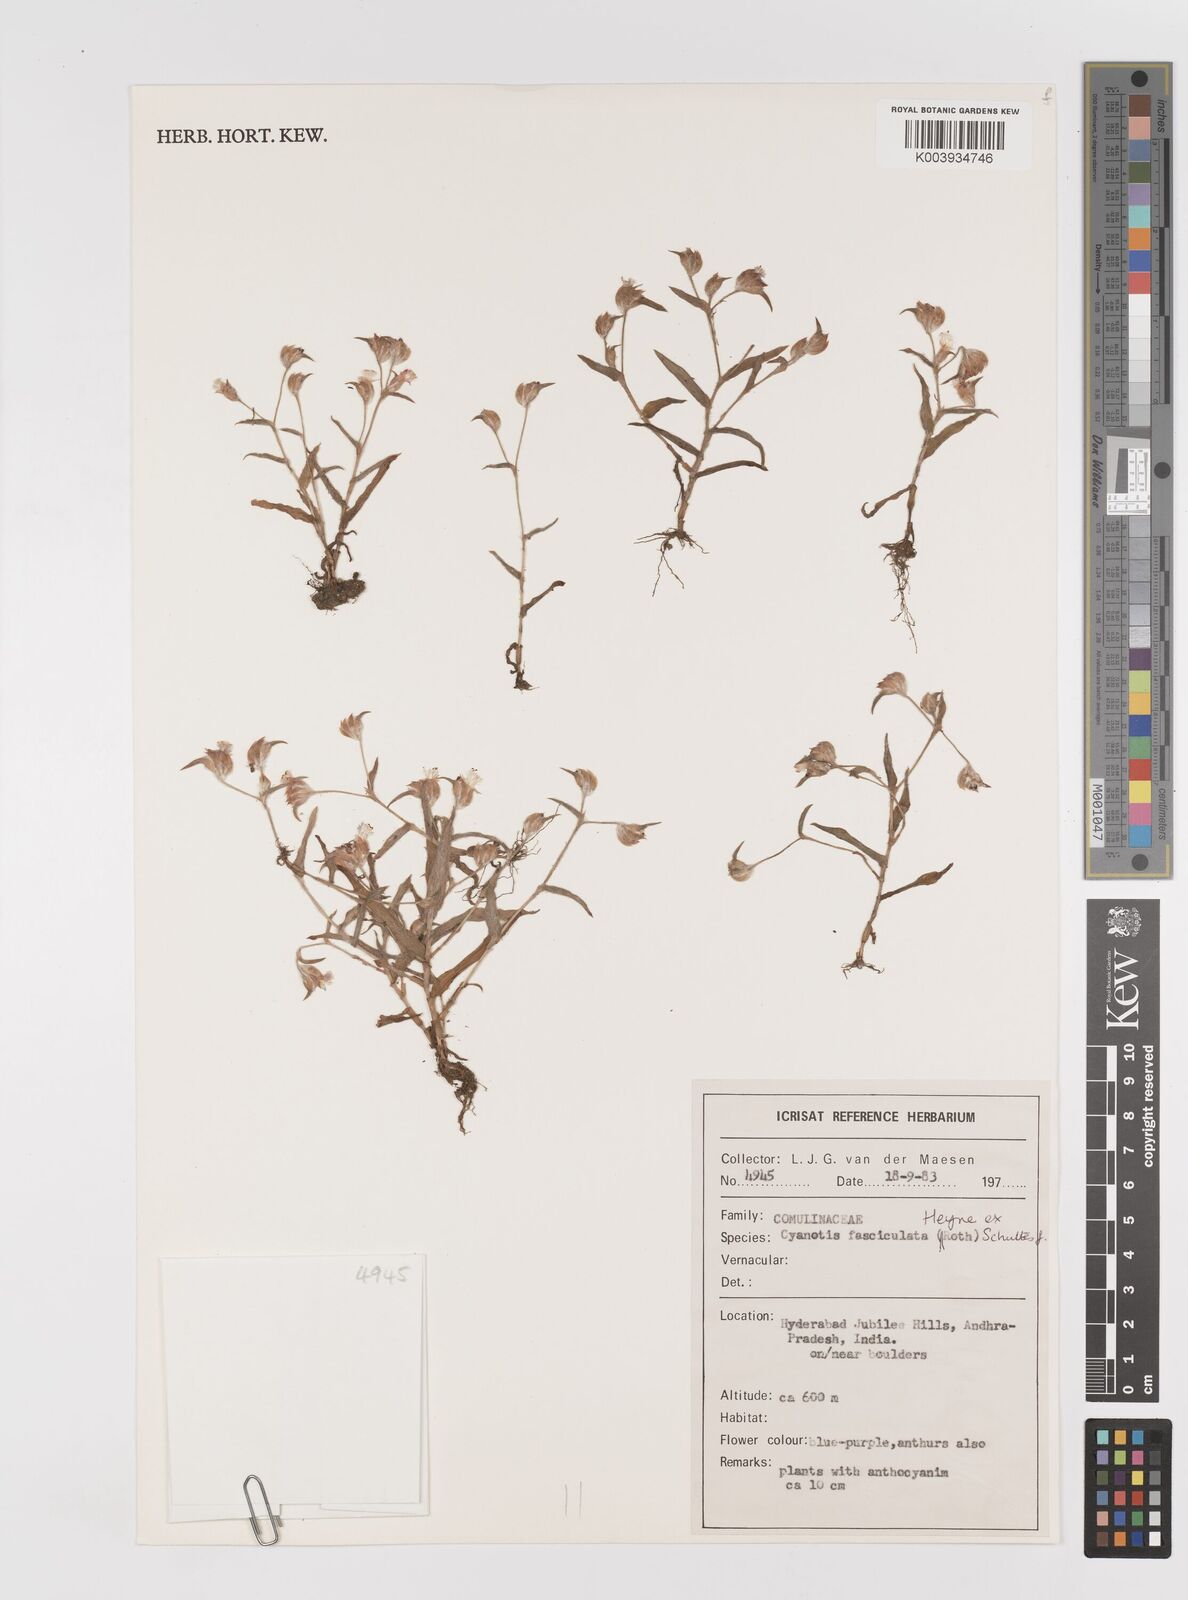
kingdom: Plantae
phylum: Tracheophyta
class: Liliopsida
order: Commelinales
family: Commelinaceae
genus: Cyanotis
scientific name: Cyanotis fasciculata
